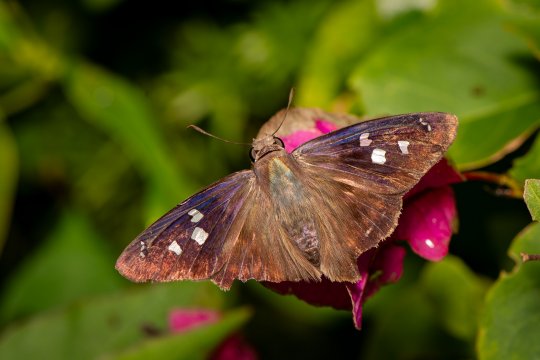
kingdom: Animalia
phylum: Arthropoda
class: Insecta
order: Lepidoptera
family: Hesperiidae
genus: Polygonus
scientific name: Polygonus leo
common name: Hammock Skipper
